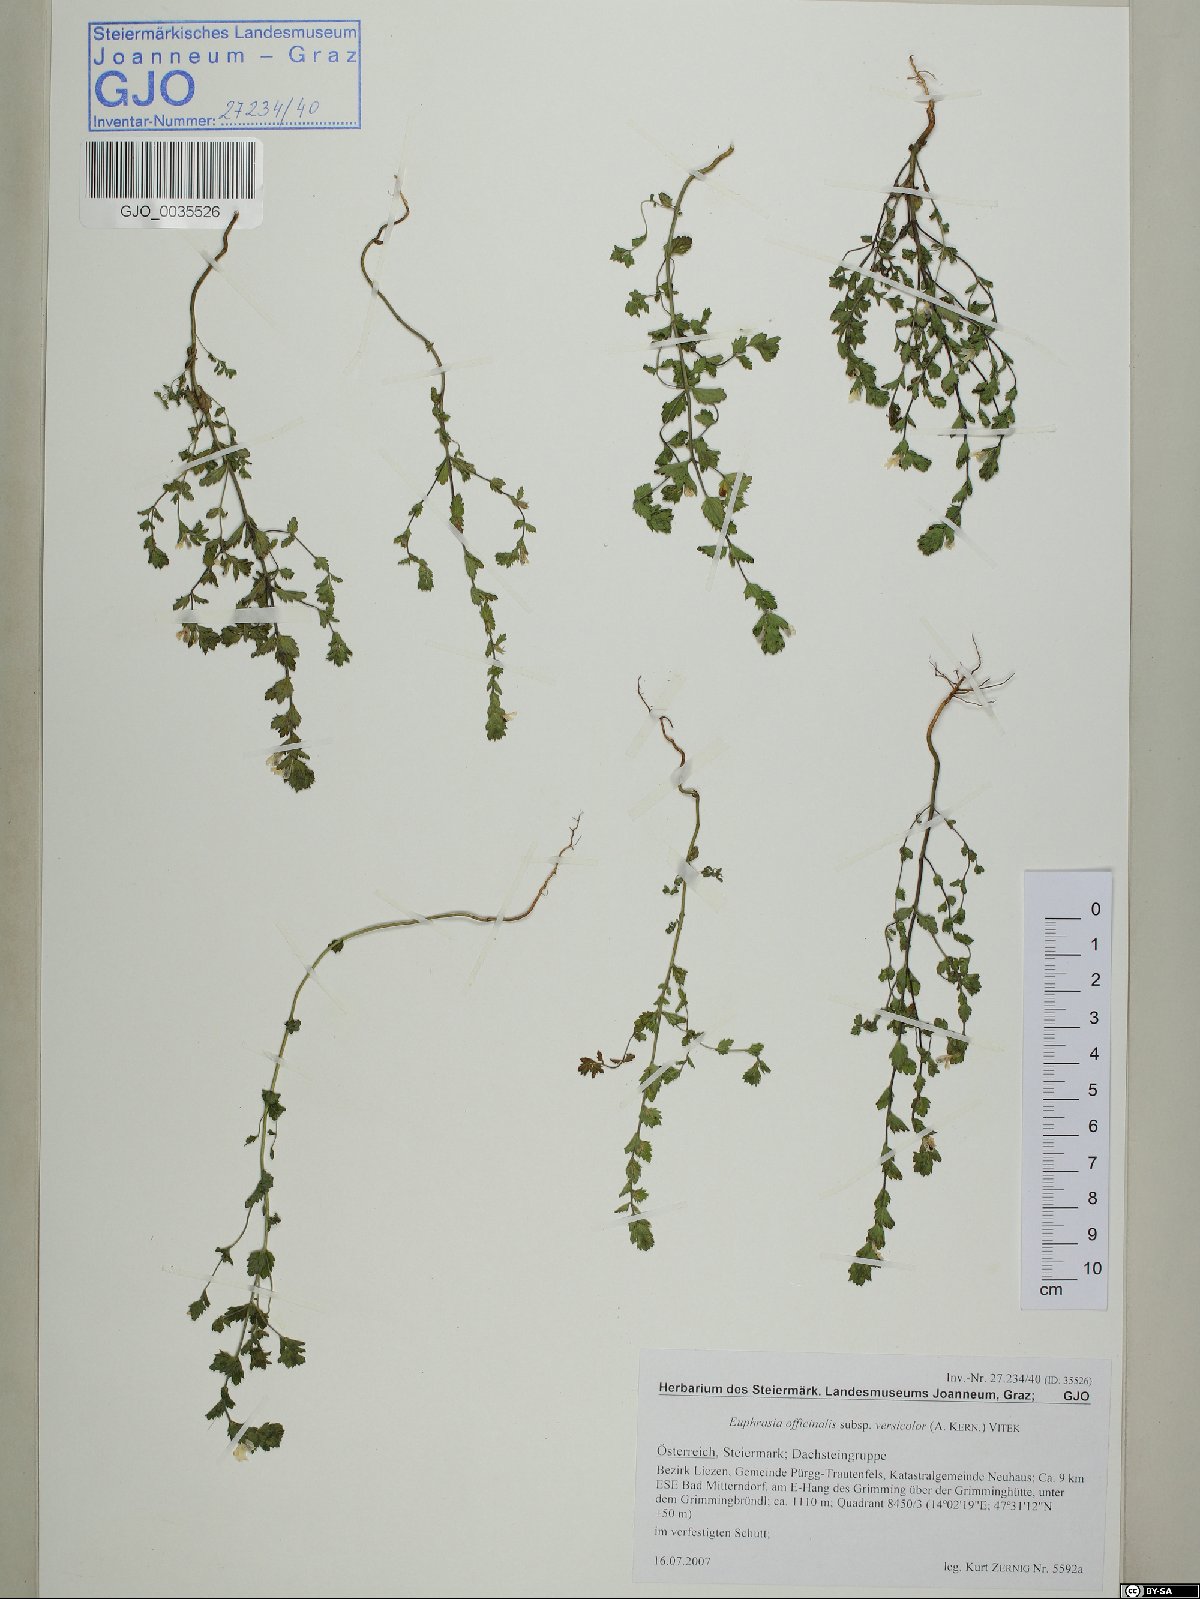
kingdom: Plantae
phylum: Tracheophyta
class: Magnoliopsida
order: Lamiales
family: Orobanchaceae
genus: Euphrasia
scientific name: Euphrasia picta
